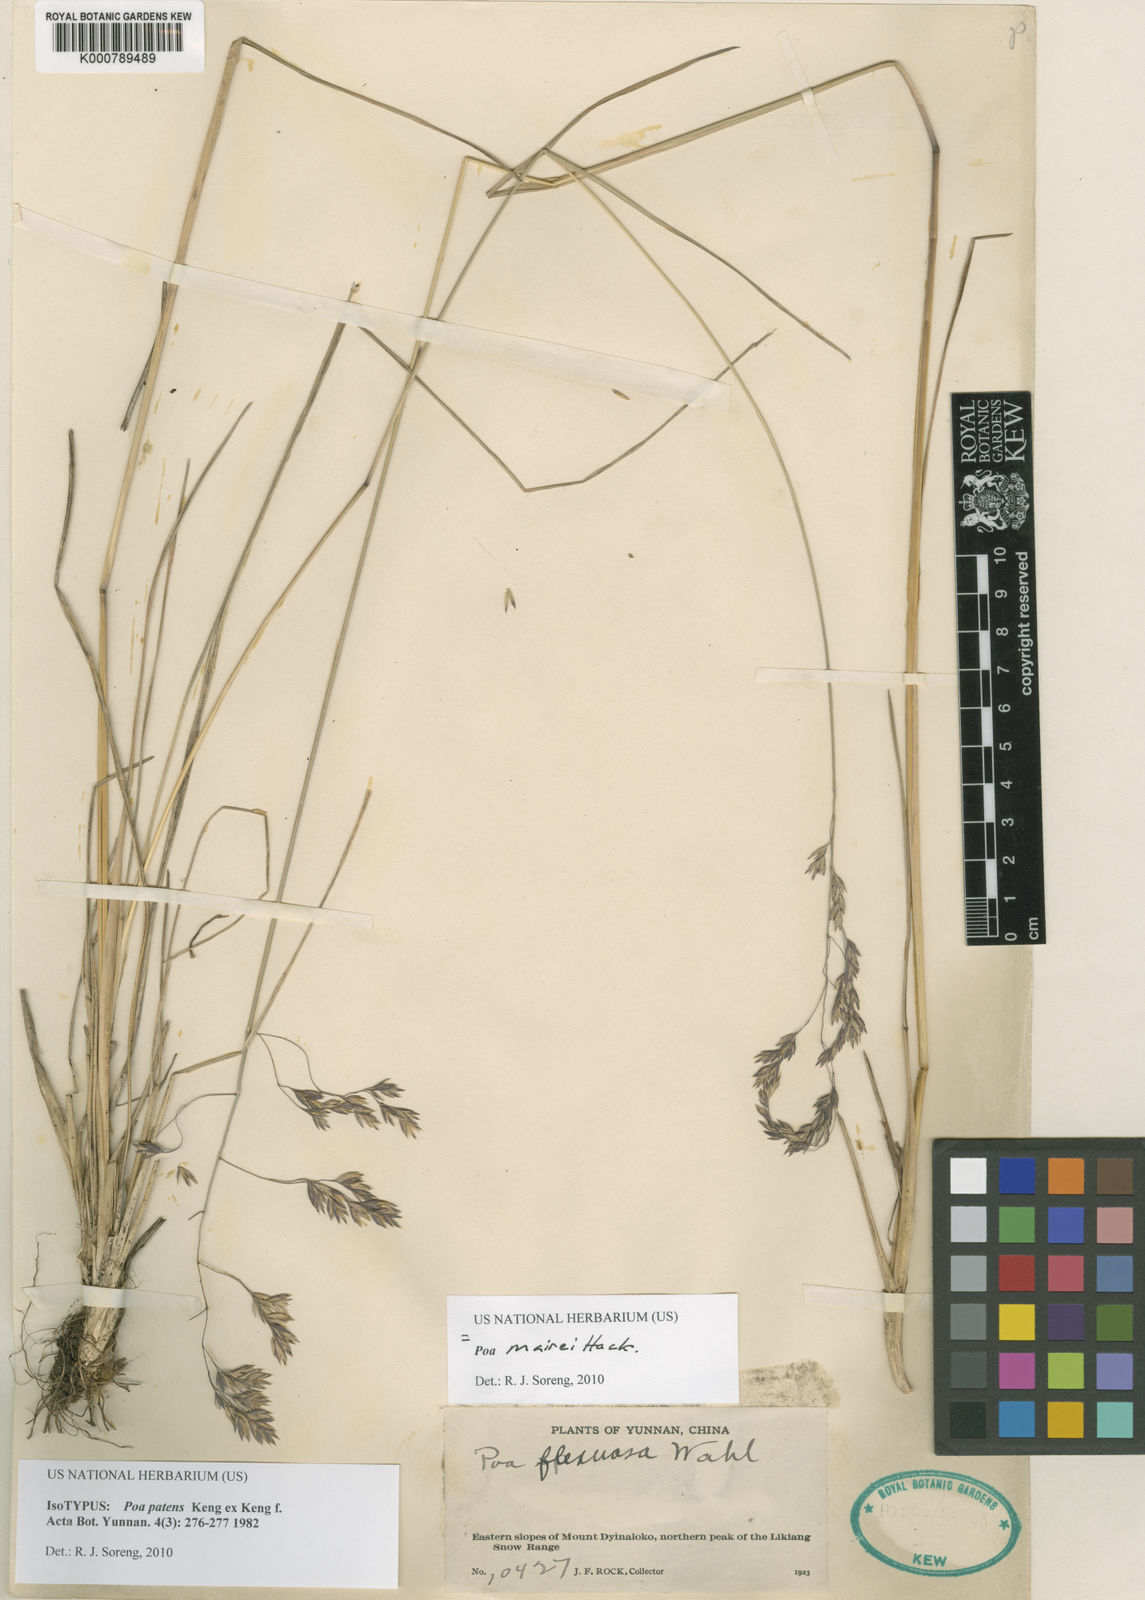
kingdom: Plantae
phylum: Tracheophyta
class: Liliopsida
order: Poales
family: Poaceae
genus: Poa
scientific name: Poa mairei
